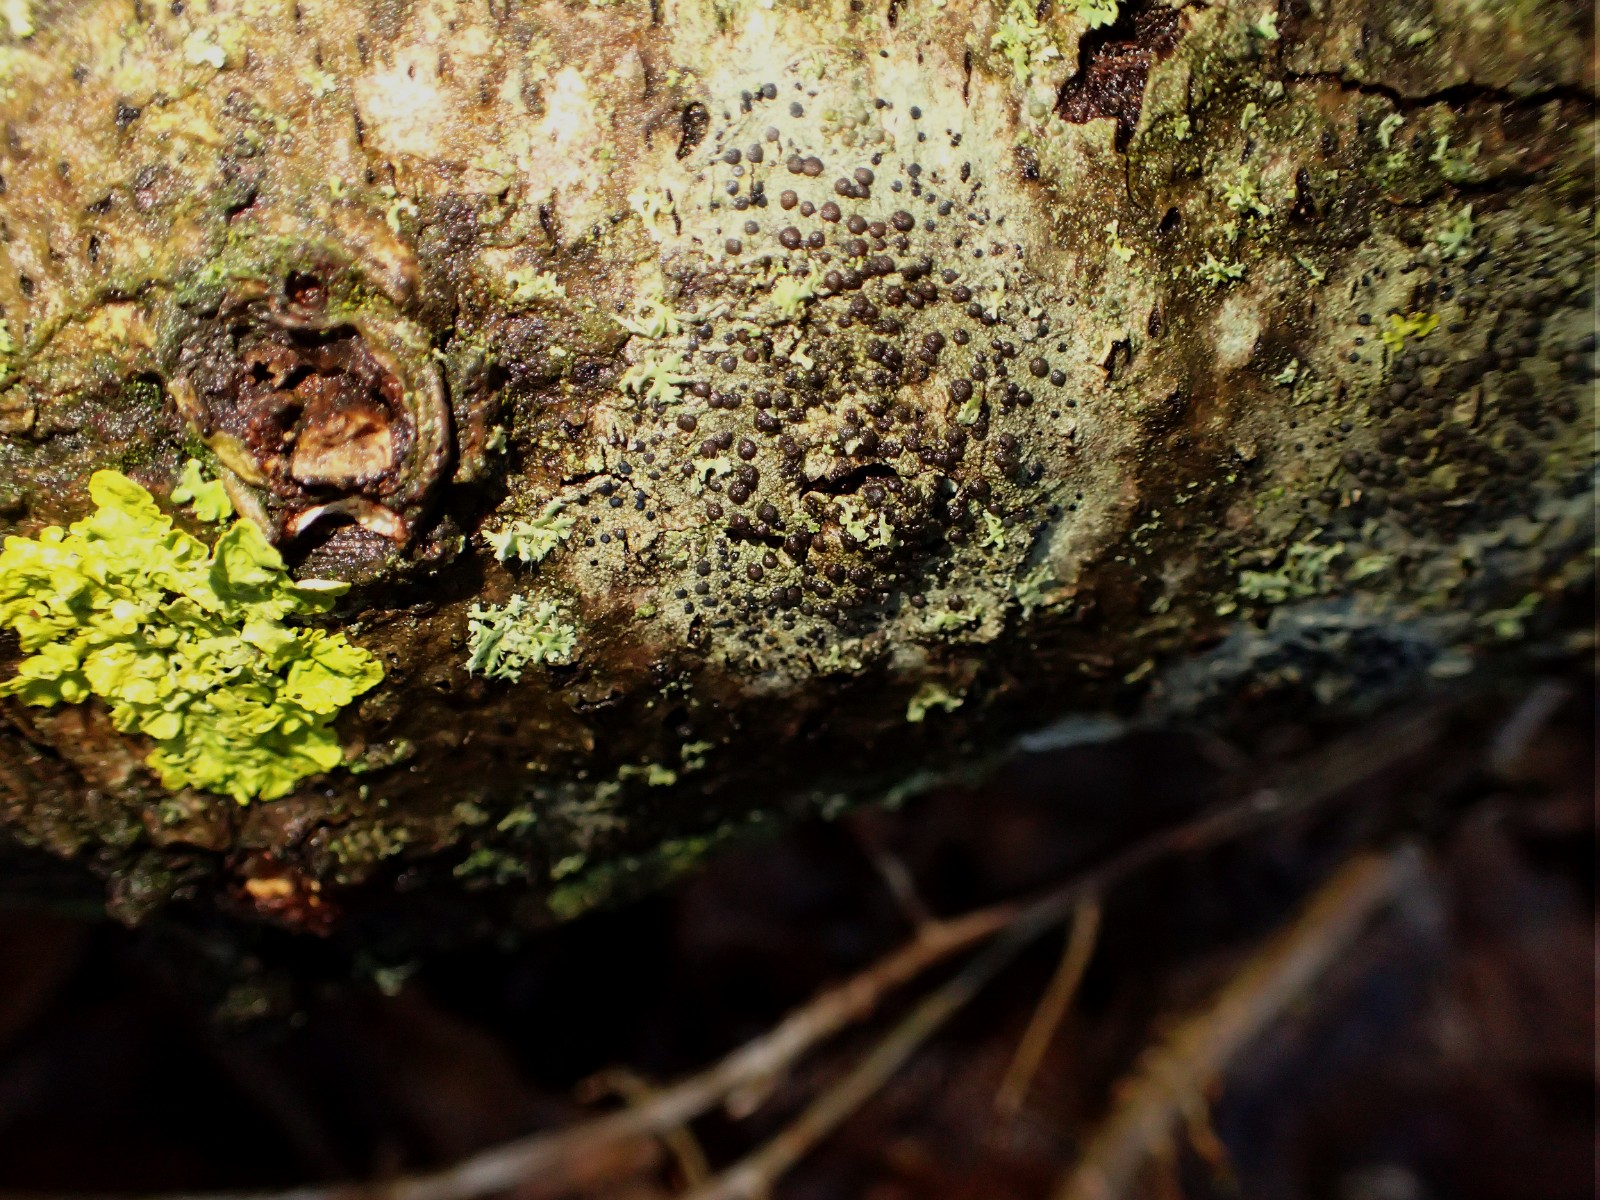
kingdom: Fungi
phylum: Ascomycota
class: Lecanoromycetes
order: Lecanorales
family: Lecanoraceae
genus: Lecidella
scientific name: Lecidella elaeochroma
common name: grågrøn skivelav
